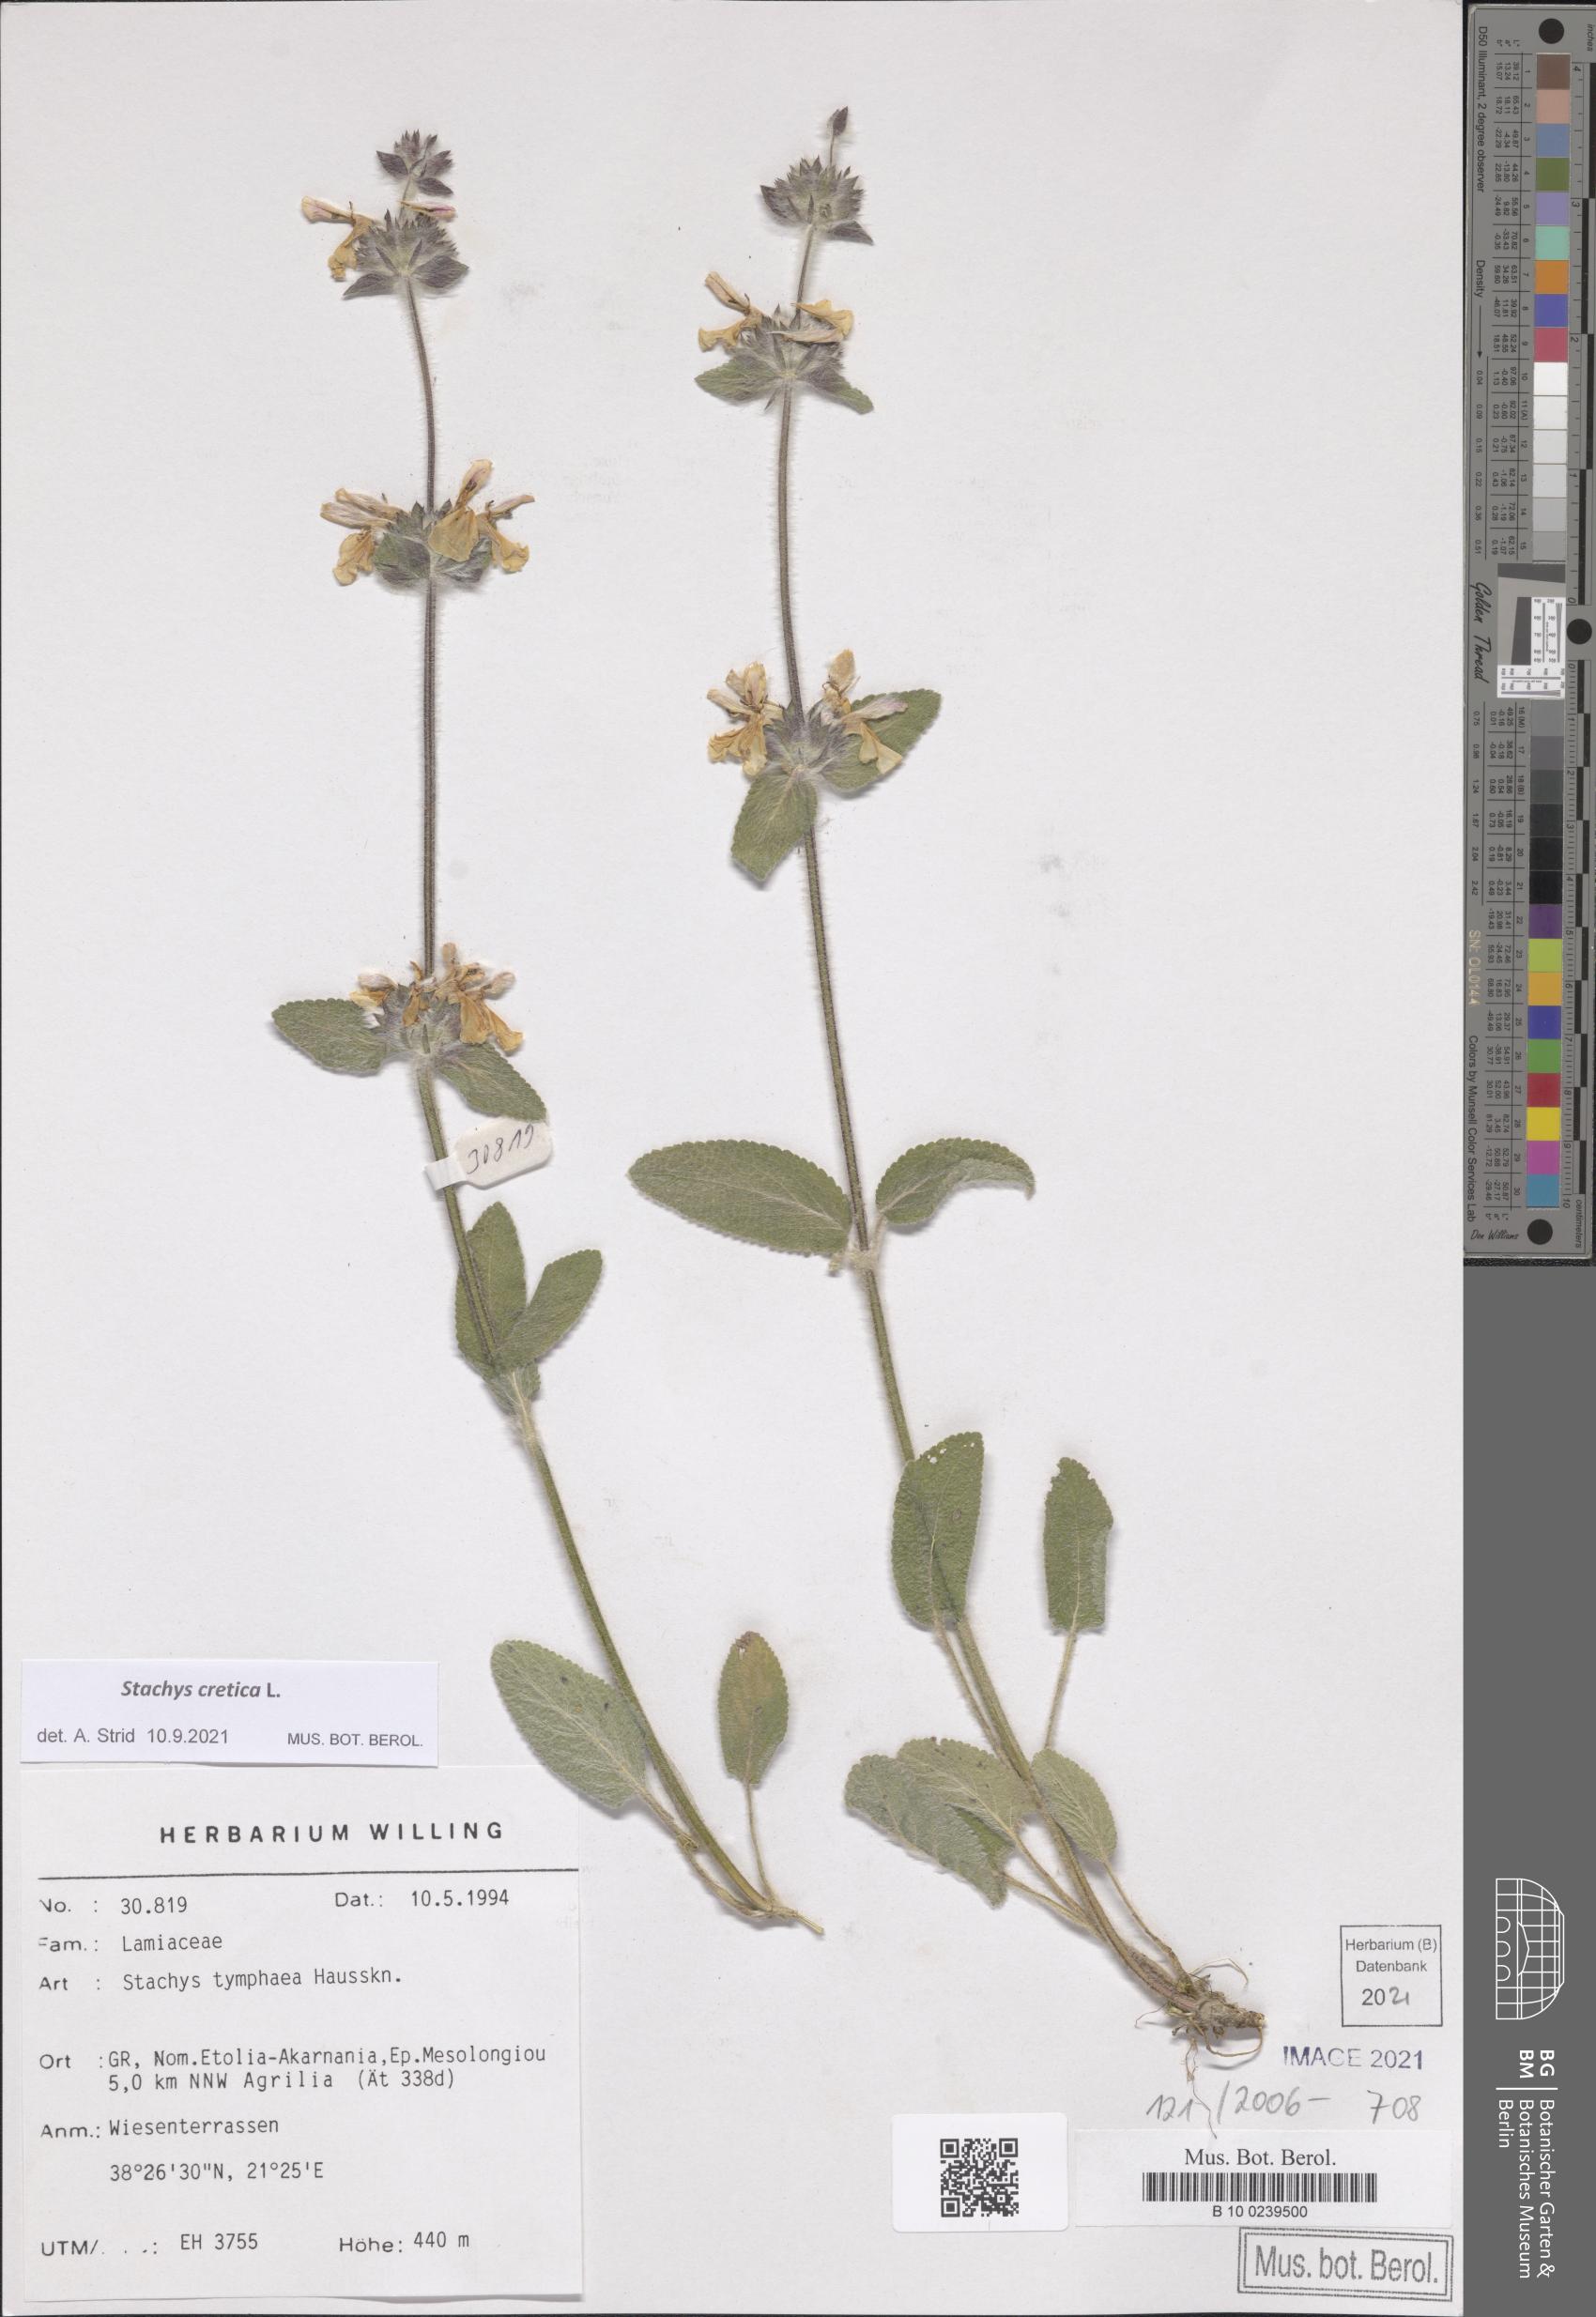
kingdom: Plantae
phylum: Tracheophyta
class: Magnoliopsida
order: Lamiales
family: Lamiaceae
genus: Stachys
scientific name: Stachys cretica
